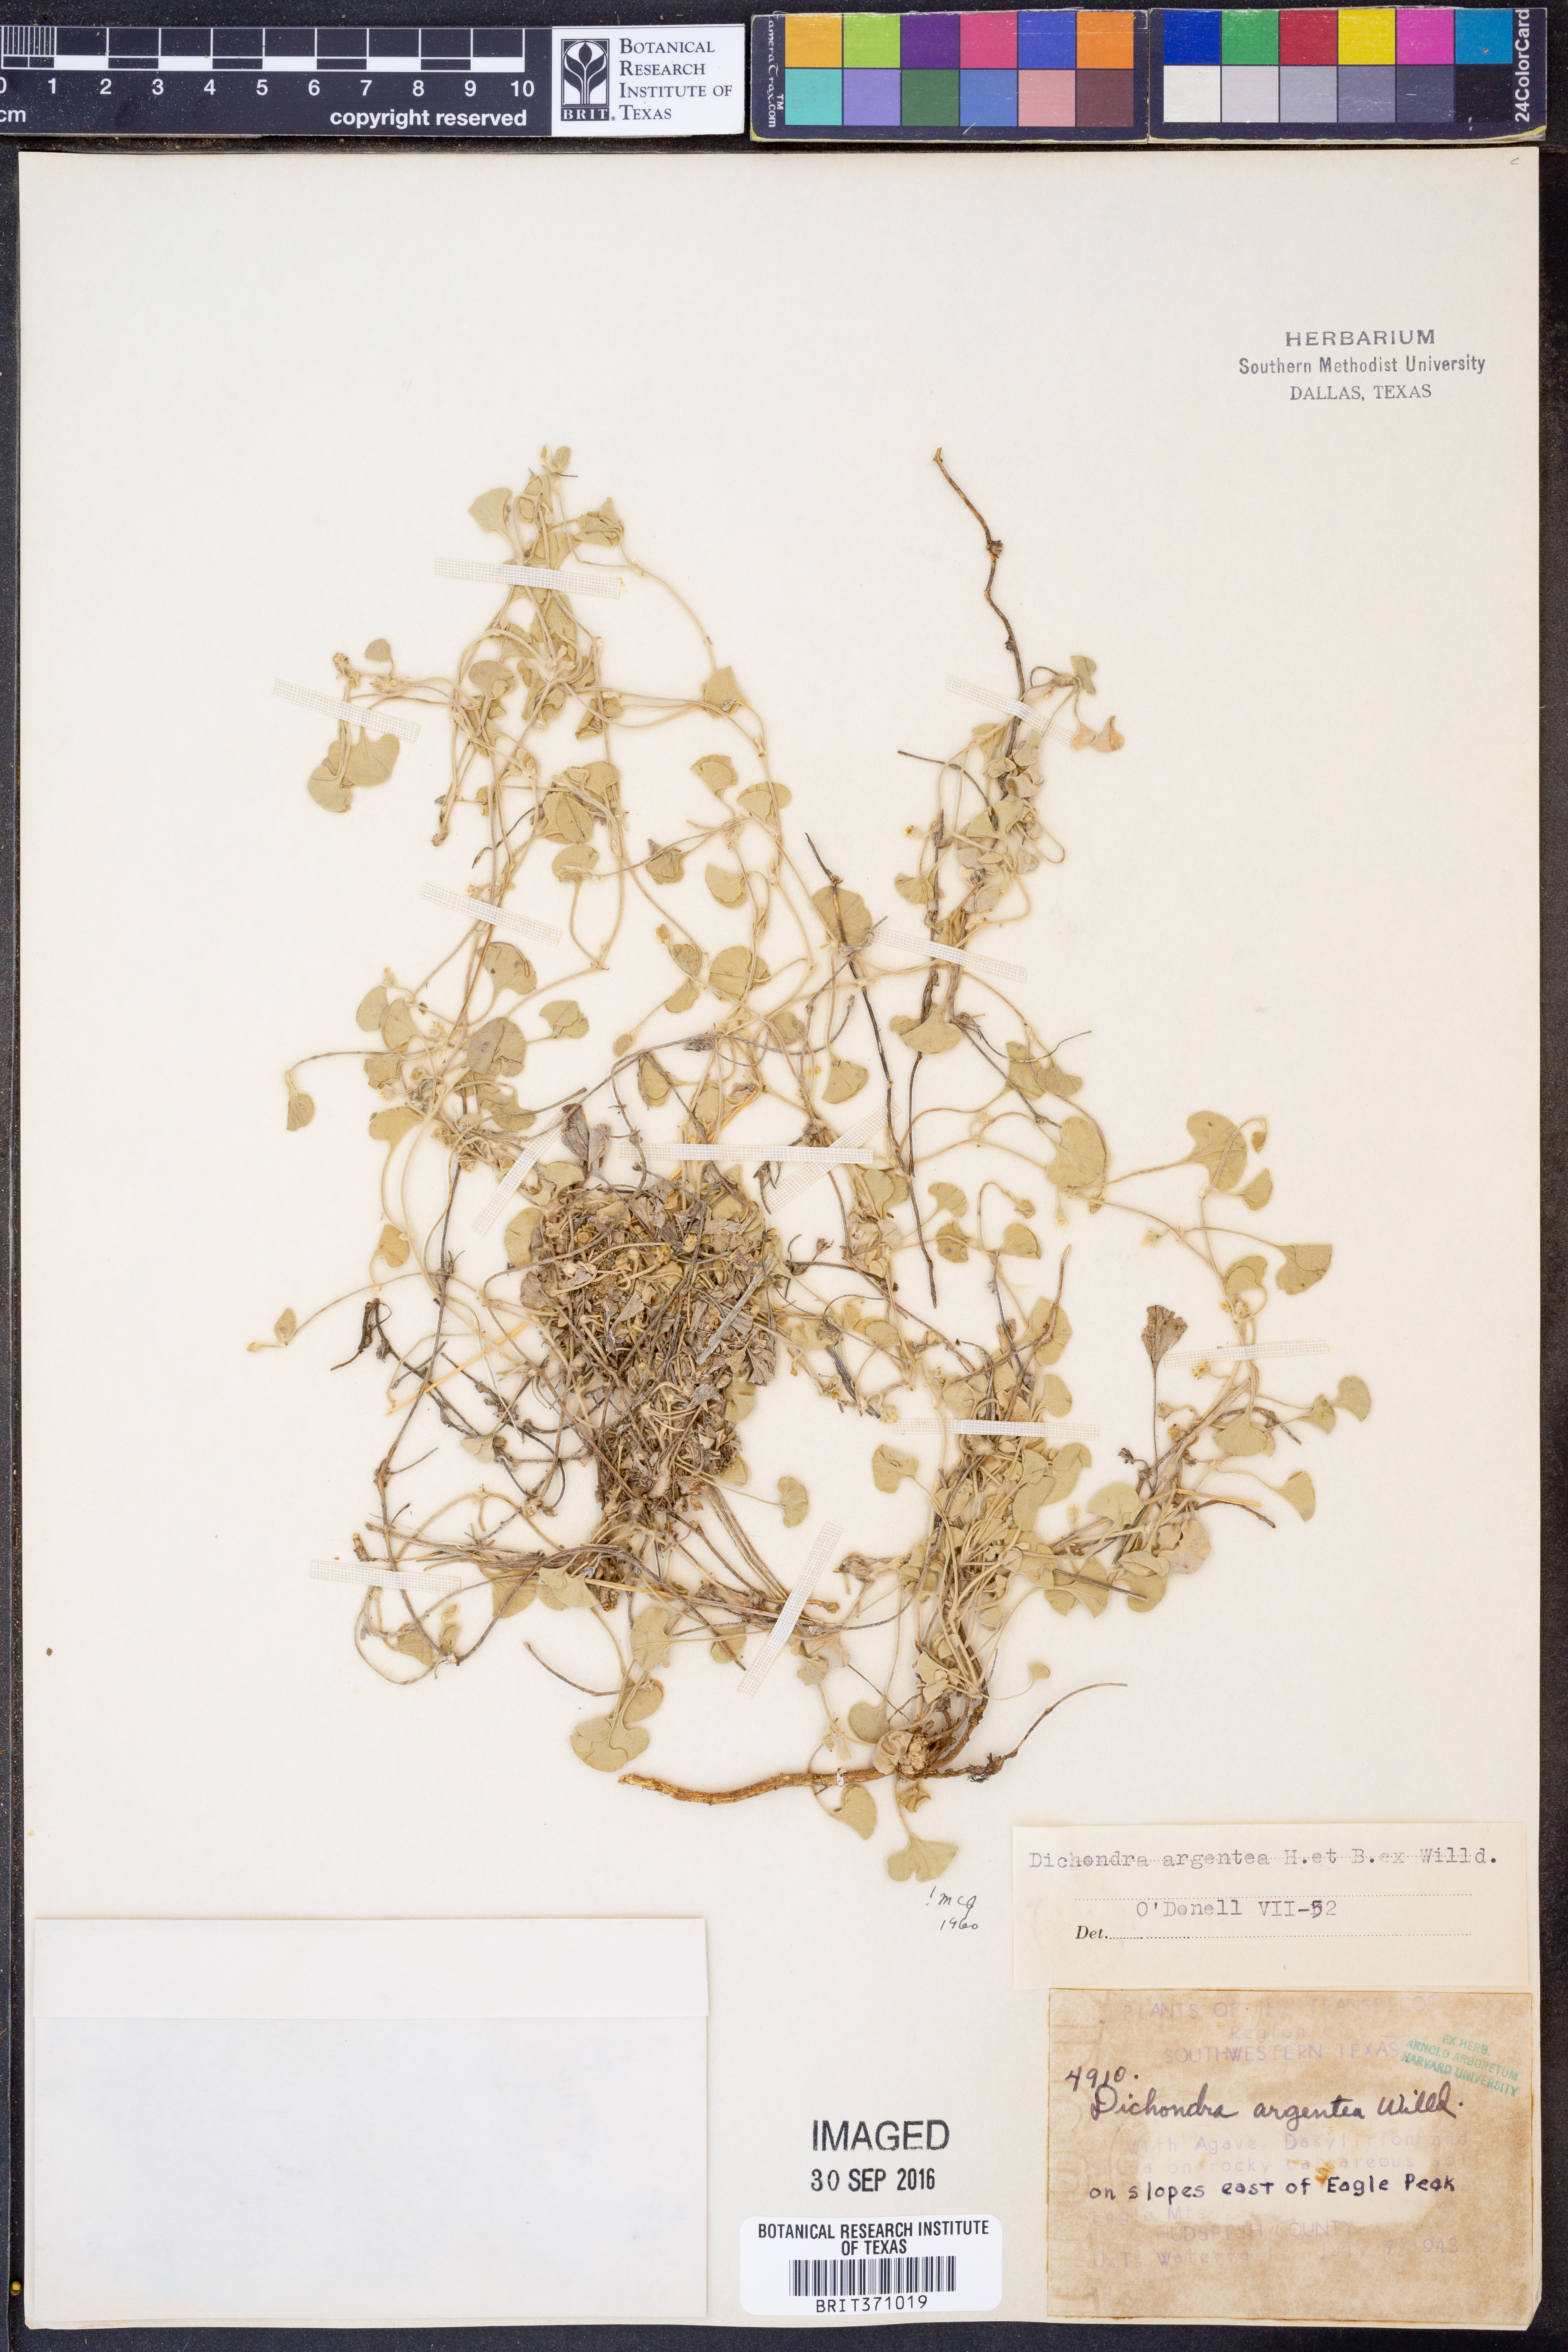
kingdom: Plantae
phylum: Tracheophyta
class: Magnoliopsida
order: Solanales
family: Convolvulaceae
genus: Dichondra
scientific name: Dichondra argentea
